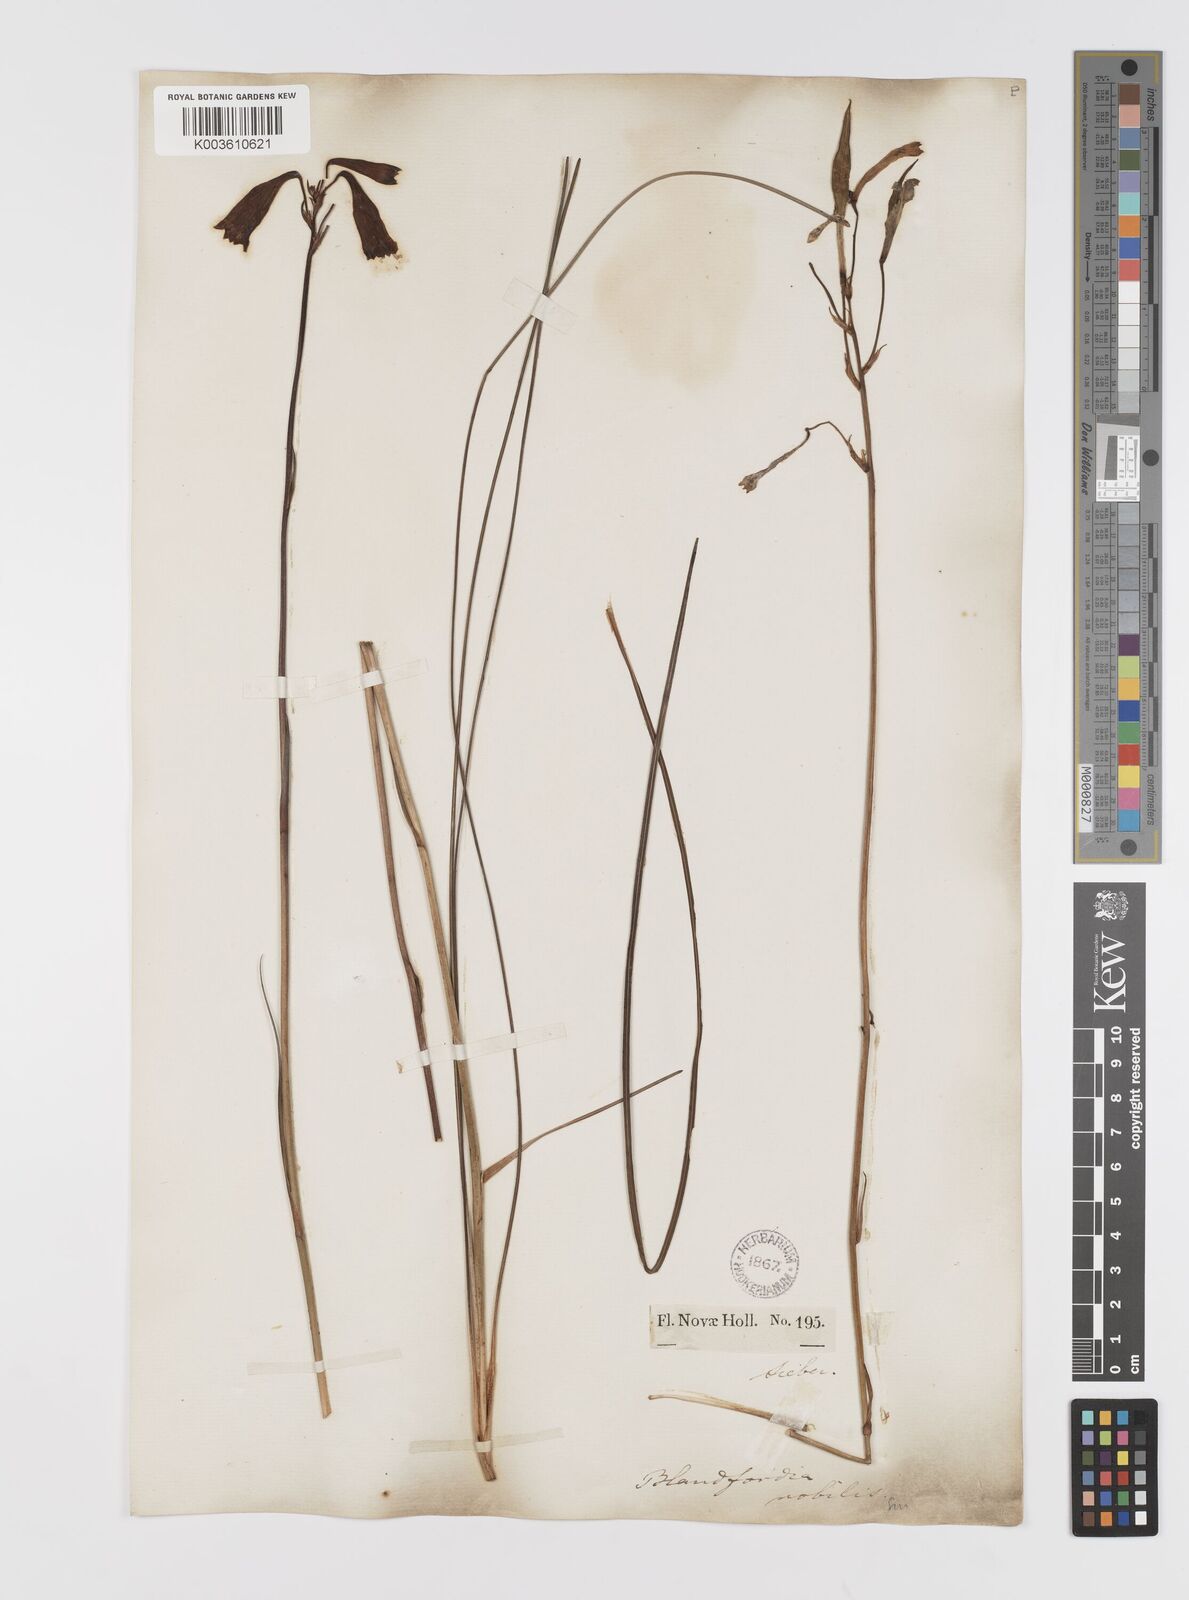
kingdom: Plantae
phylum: Tracheophyta
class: Liliopsida
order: Asparagales
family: Blandfordiaceae
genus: Blandfordia
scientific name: Blandfordia nobilis
